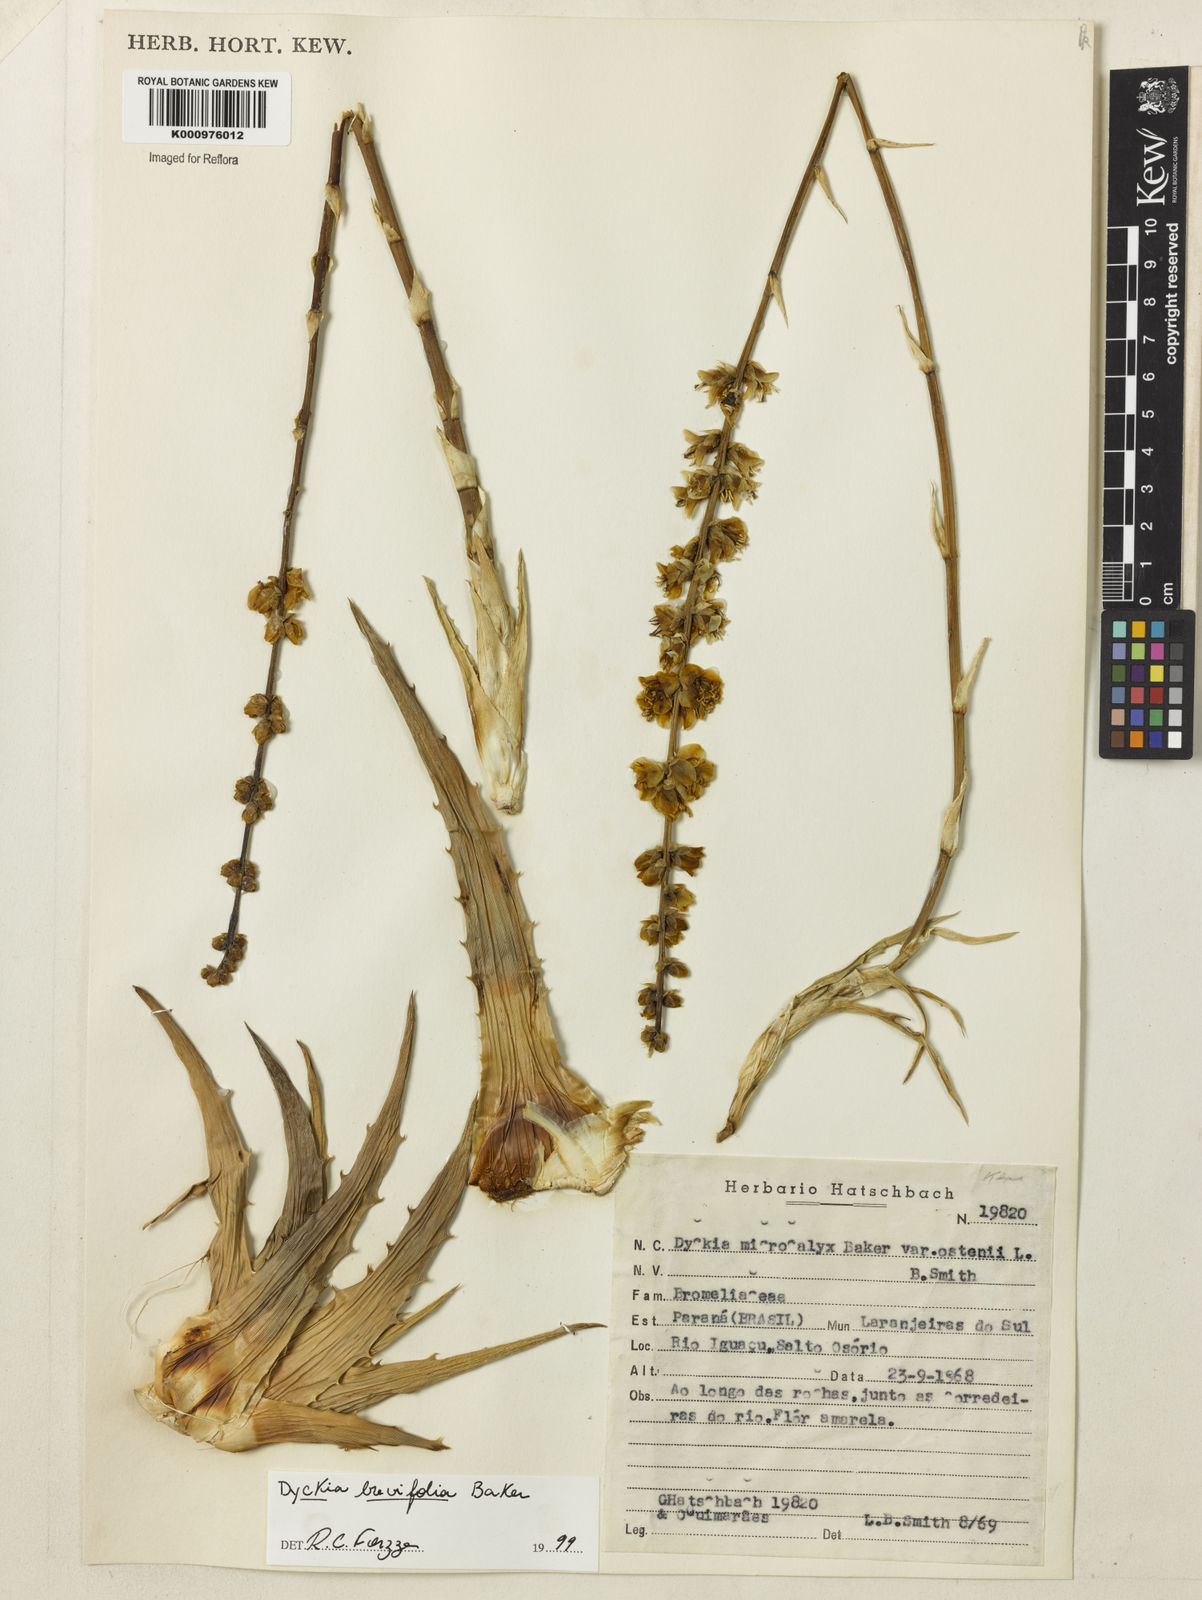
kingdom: Plantae
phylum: Tracheophyta
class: Liliopsida
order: Poales
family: Bromeliaceae
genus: Dyckia
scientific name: Dyckia brevifolia
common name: Sawblade
